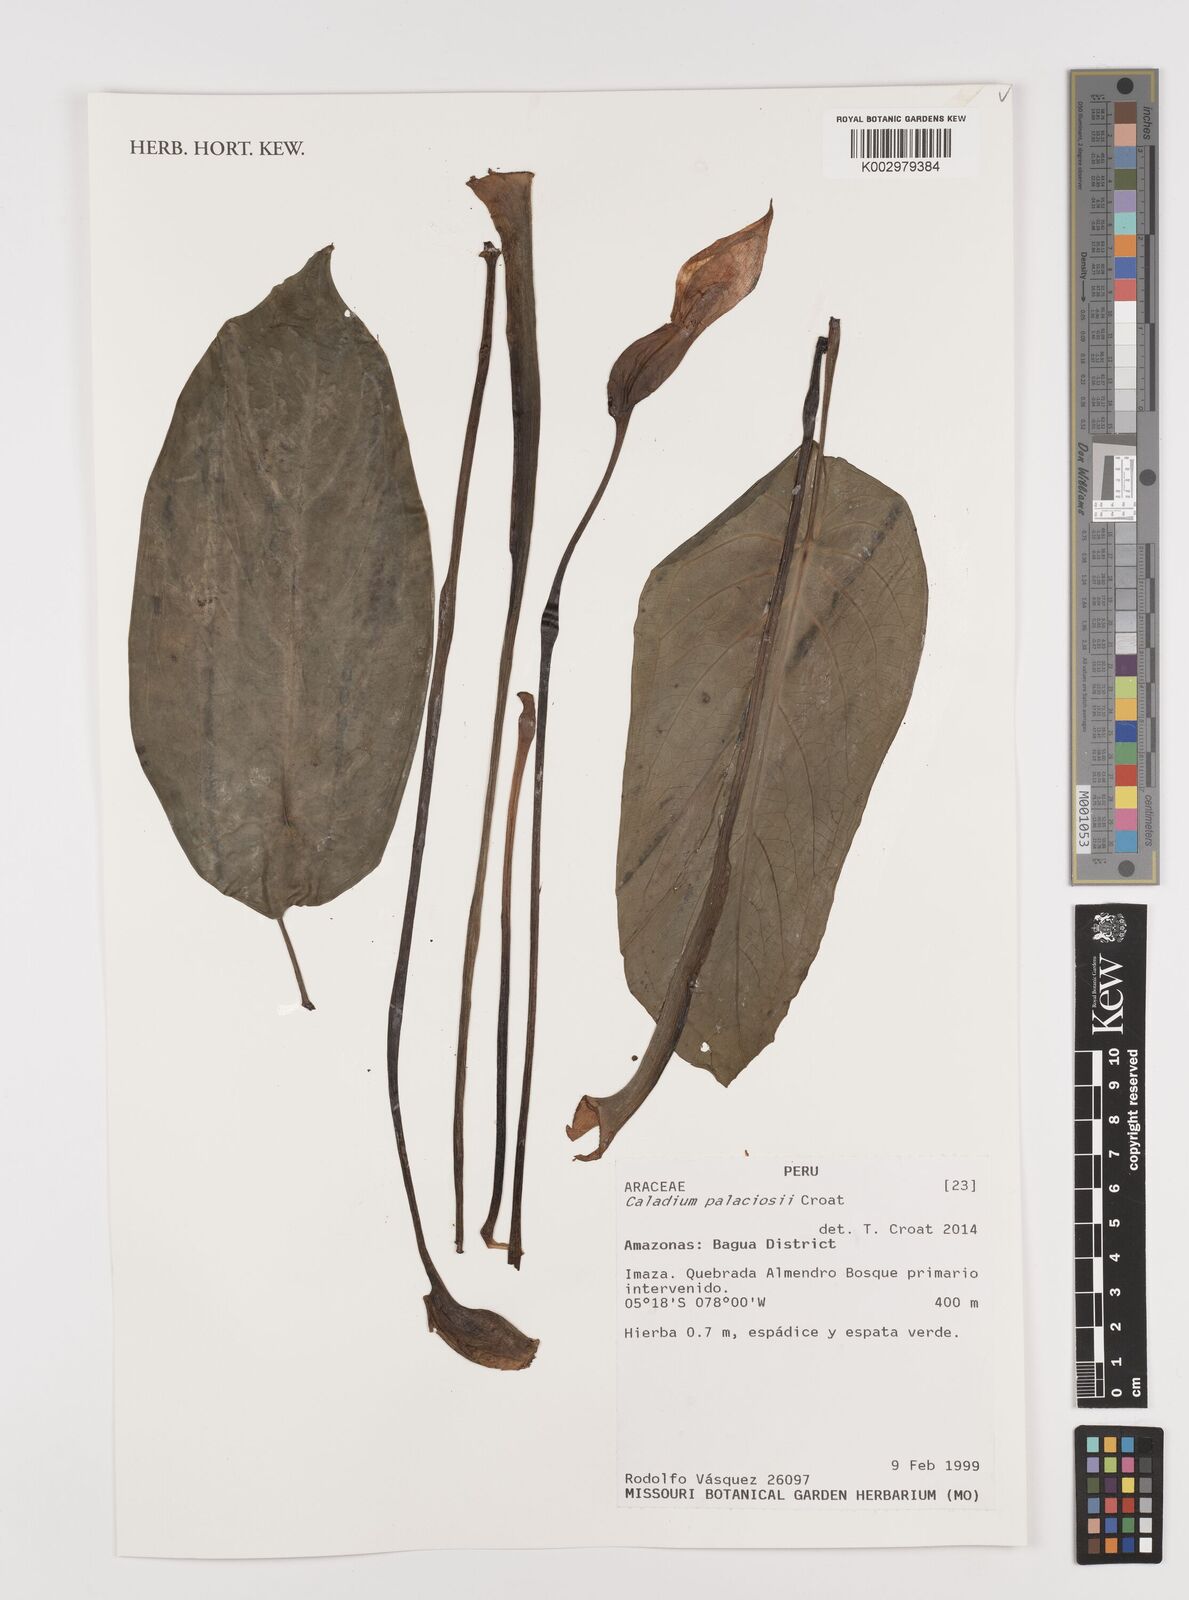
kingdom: Plantae
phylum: Tracheophyta
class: Liliopsida
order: Alismatales
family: Araceae
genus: Caladium
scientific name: Caladium palaciosii
